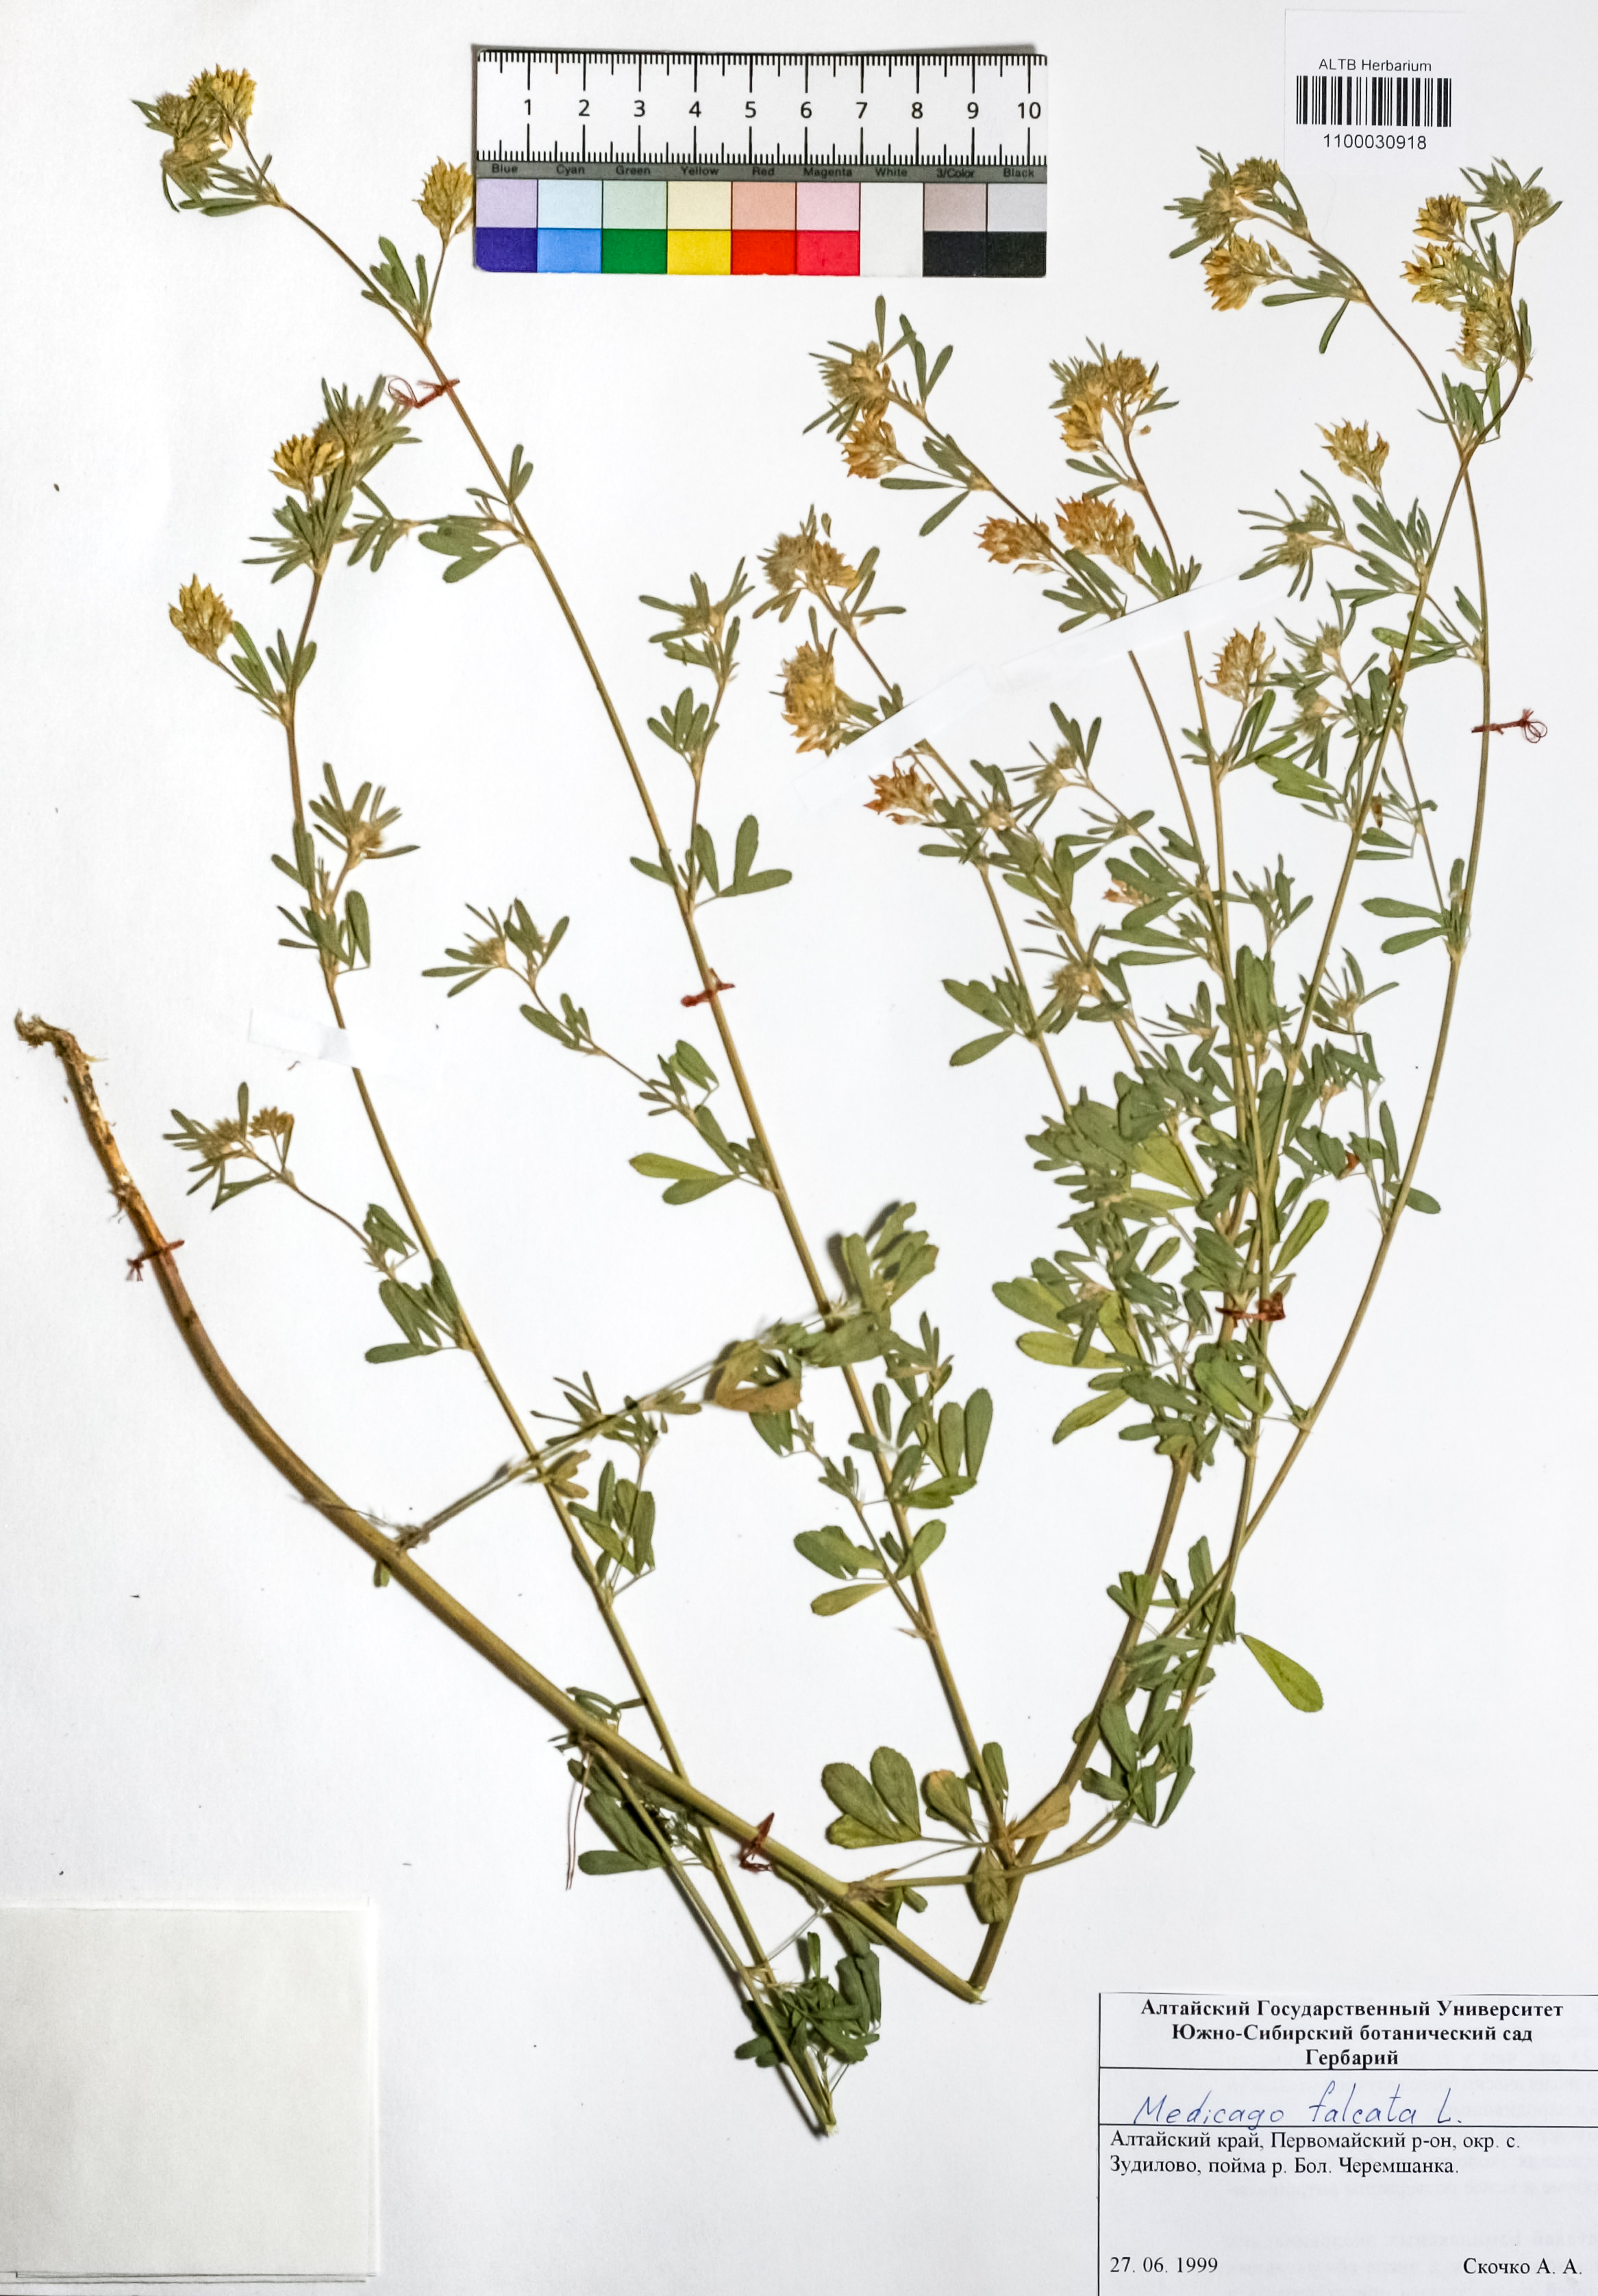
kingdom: Plantae
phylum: Tracheophyta
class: Magnoliopsida
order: Fabales
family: Fabaceae
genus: Medicago
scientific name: Medicago falcata
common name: Sickle medick
